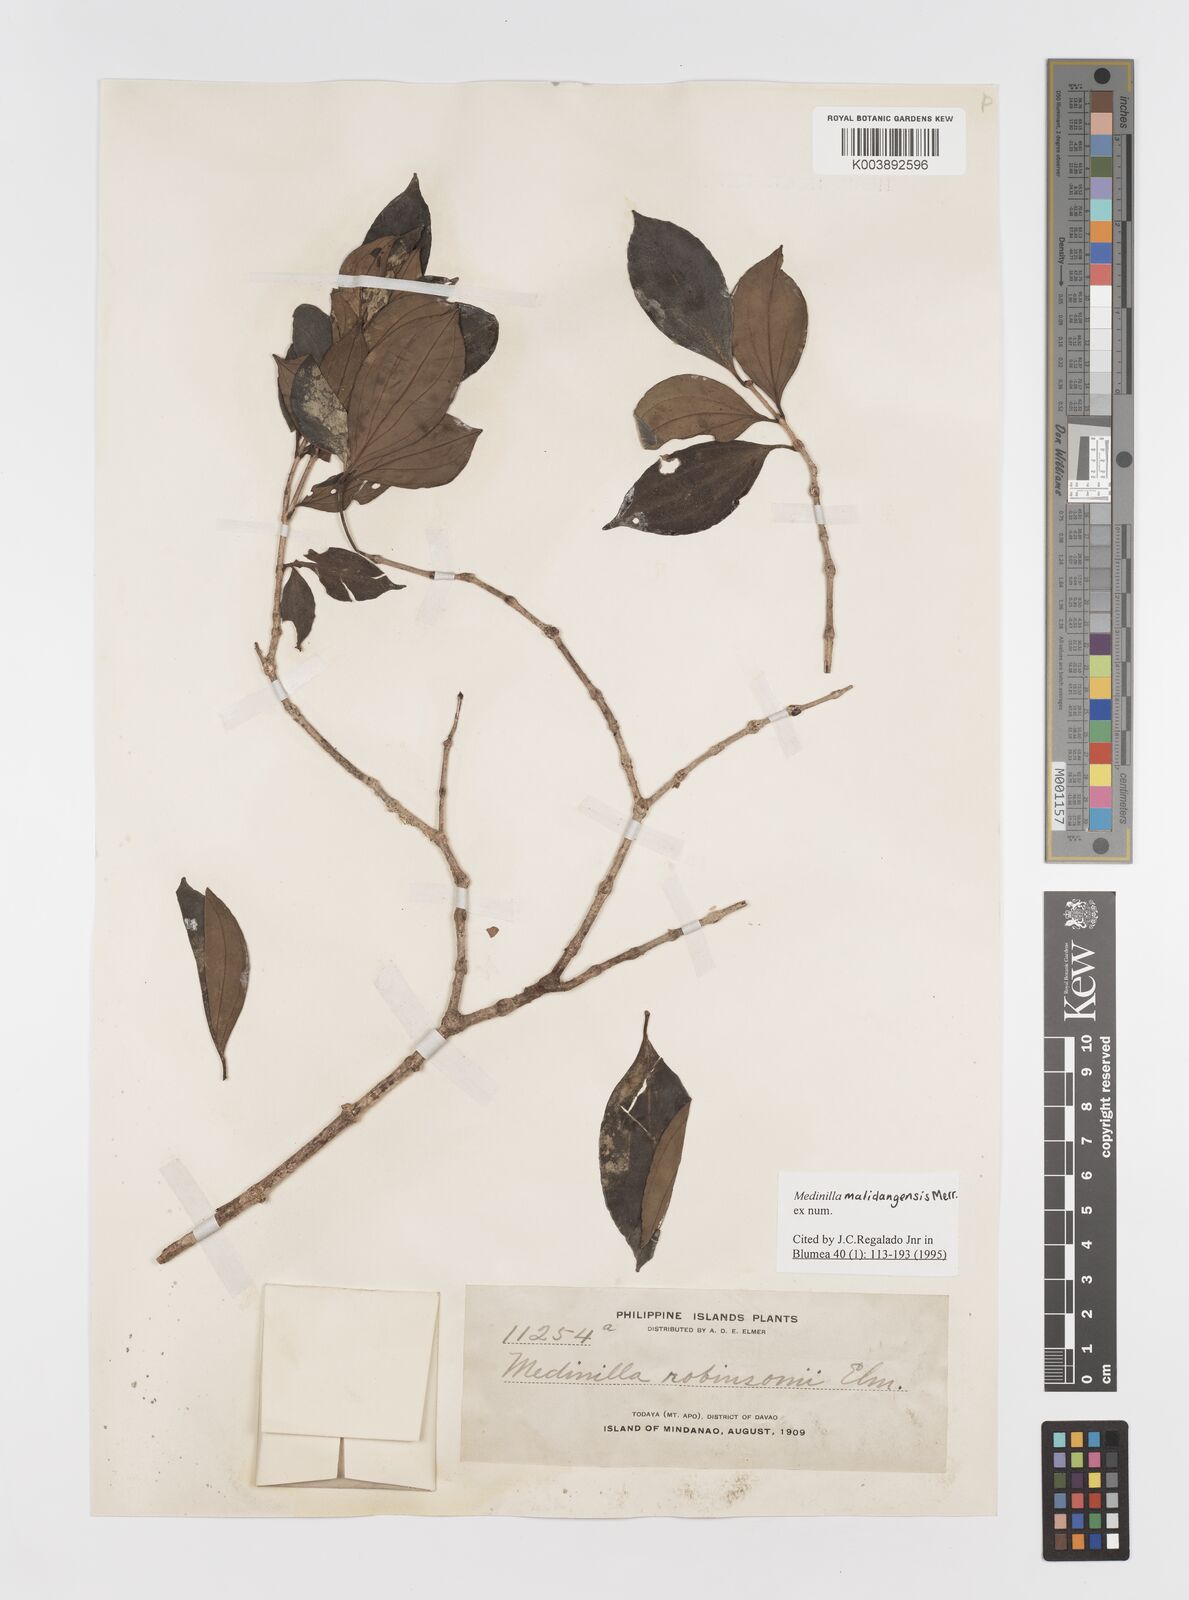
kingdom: Plantae
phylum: Tracheophyta
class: Magnoliopsida
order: Myrtales
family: Melastomataceae
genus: Medinilla
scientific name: Medinilla malindangensis
